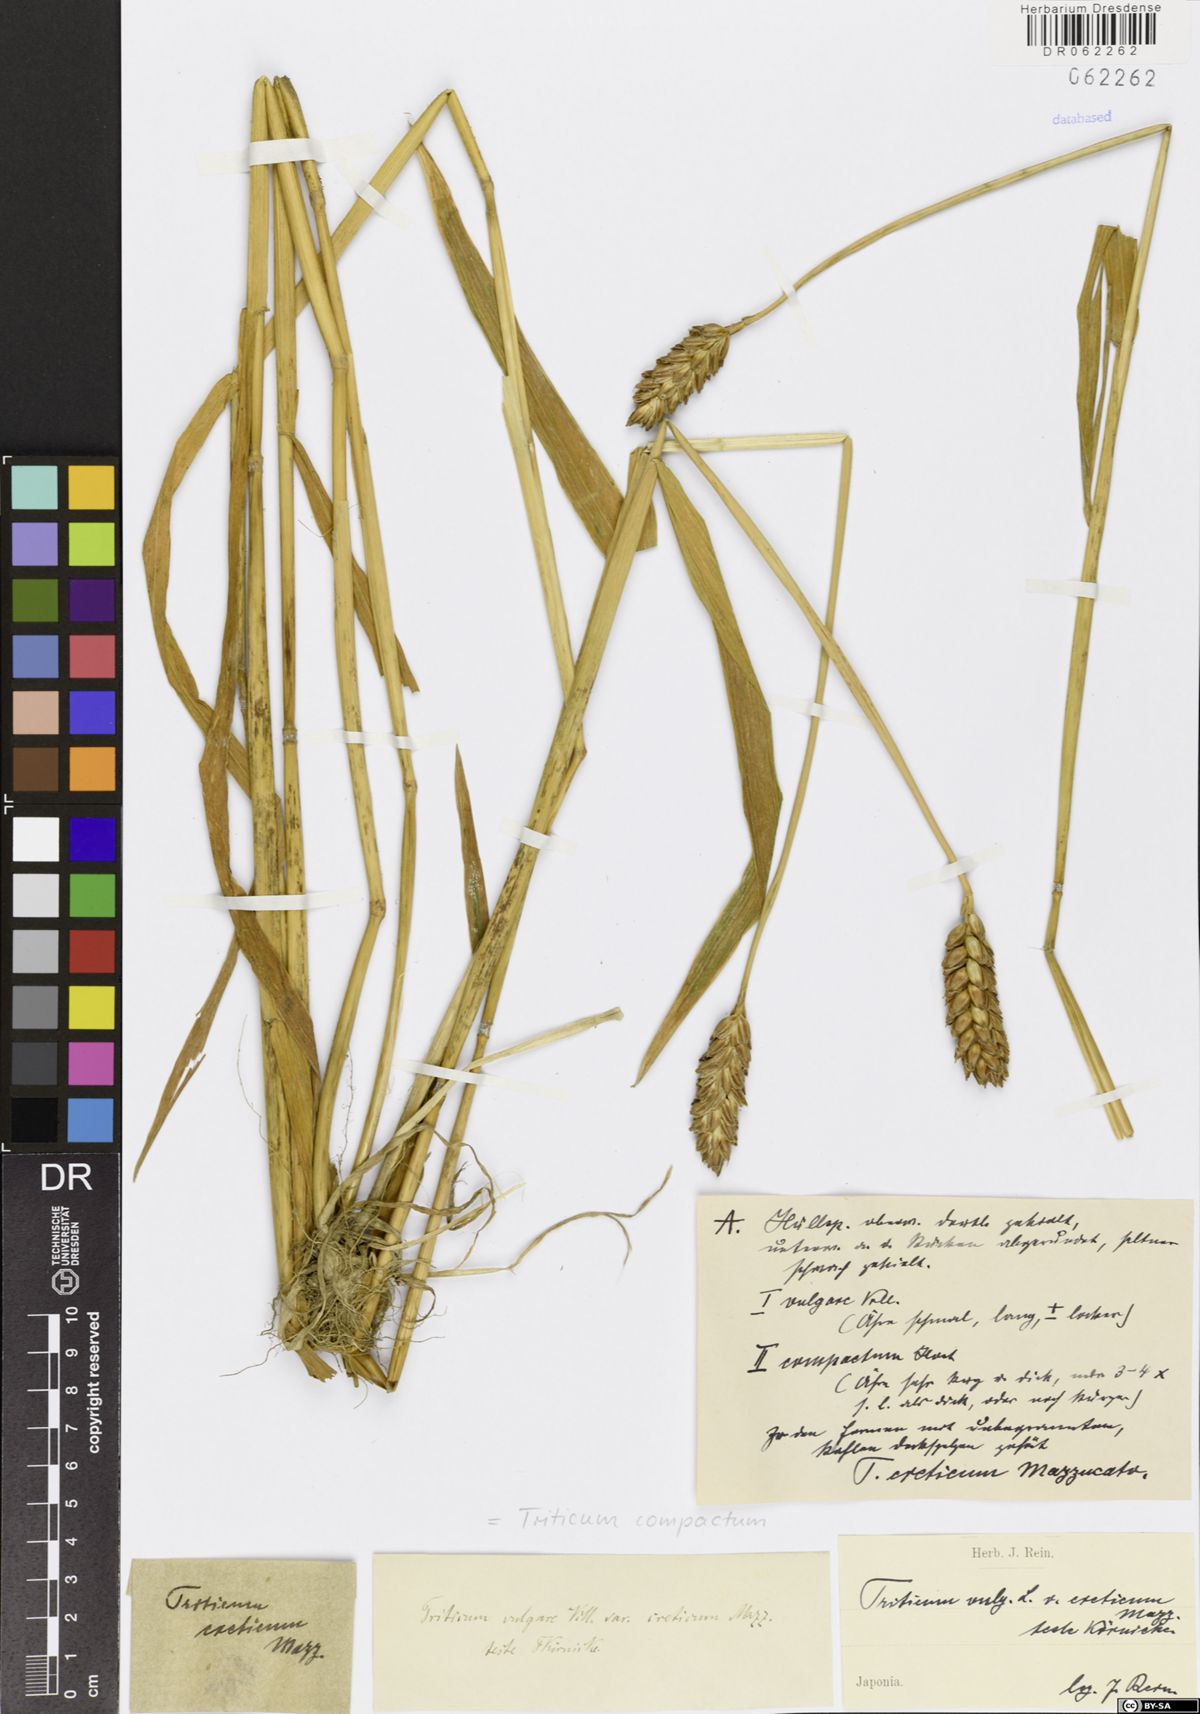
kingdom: Plantae
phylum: Tracheophyta
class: Liliopsida
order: Poales
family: Poaceae
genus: Triticum
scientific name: Triticum aestivum
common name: Common wheat
